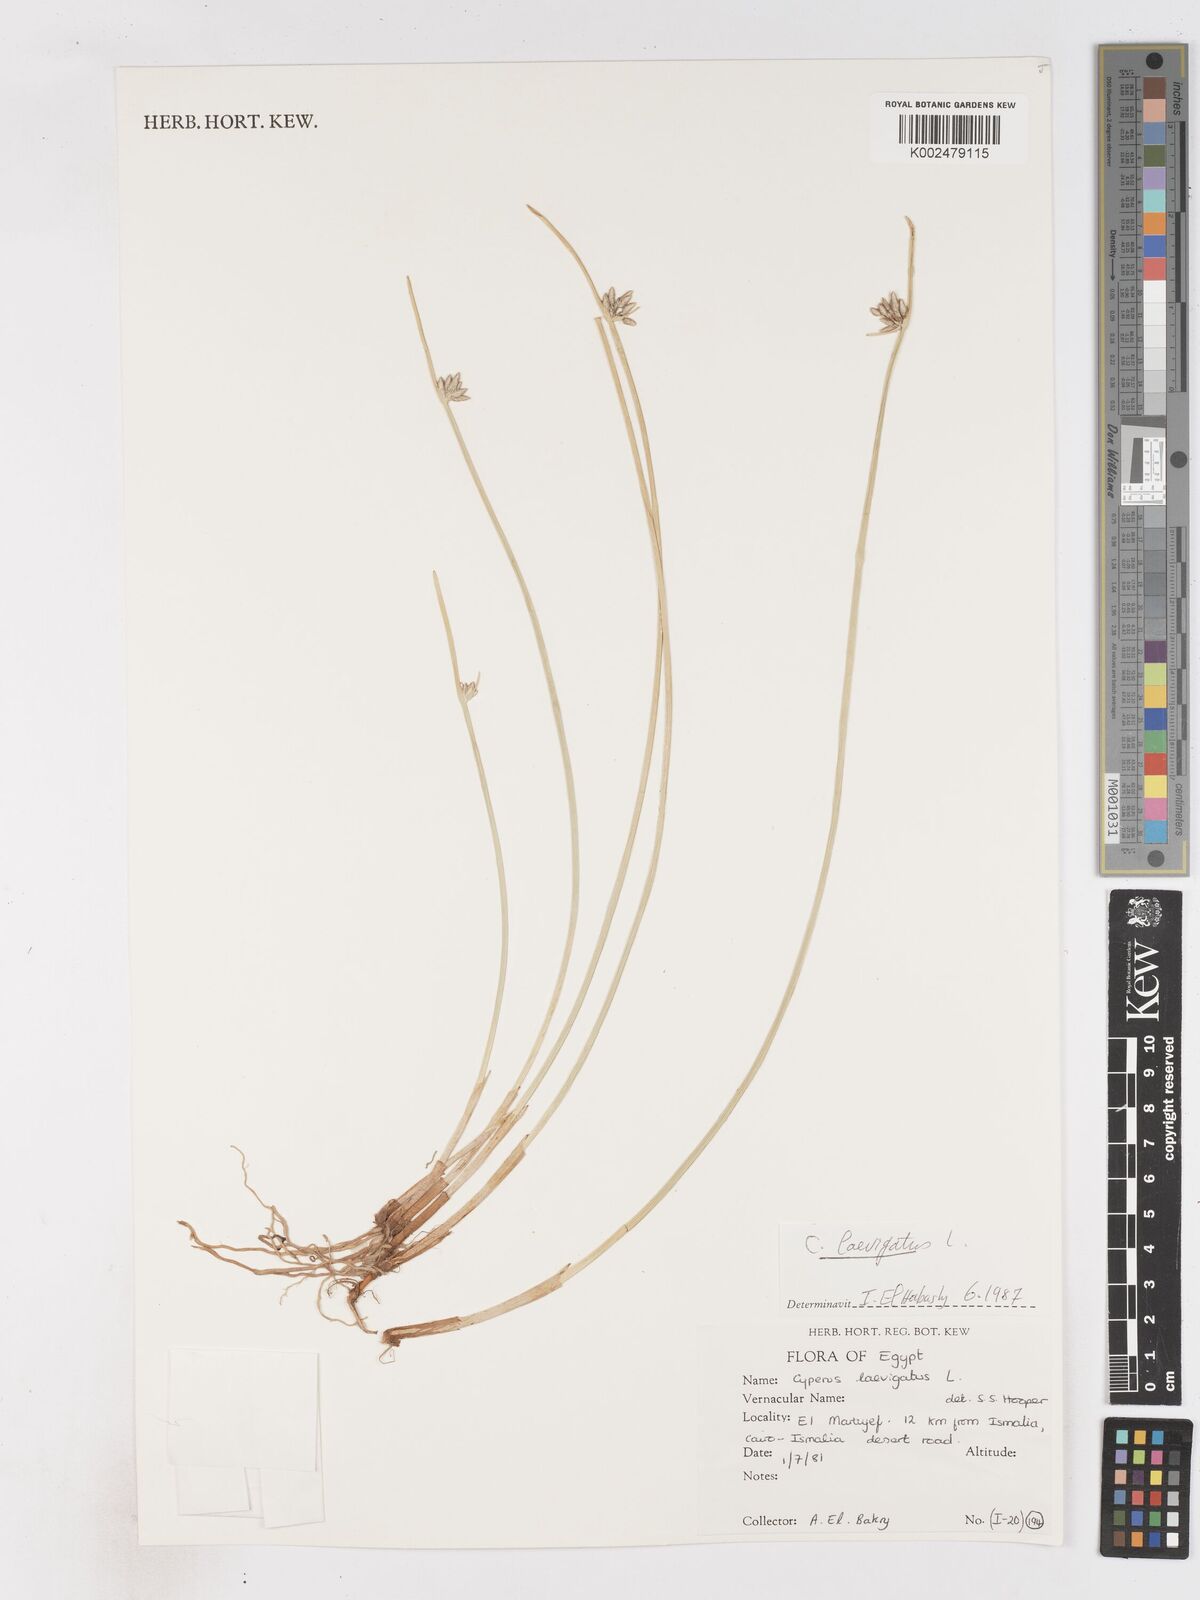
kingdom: Plantae
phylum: Tracheophyta
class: Liliopsida
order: Poales
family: Cyperaceae
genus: Cyperus
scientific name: Cyperus laevigatus
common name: Smooth flat sedge
